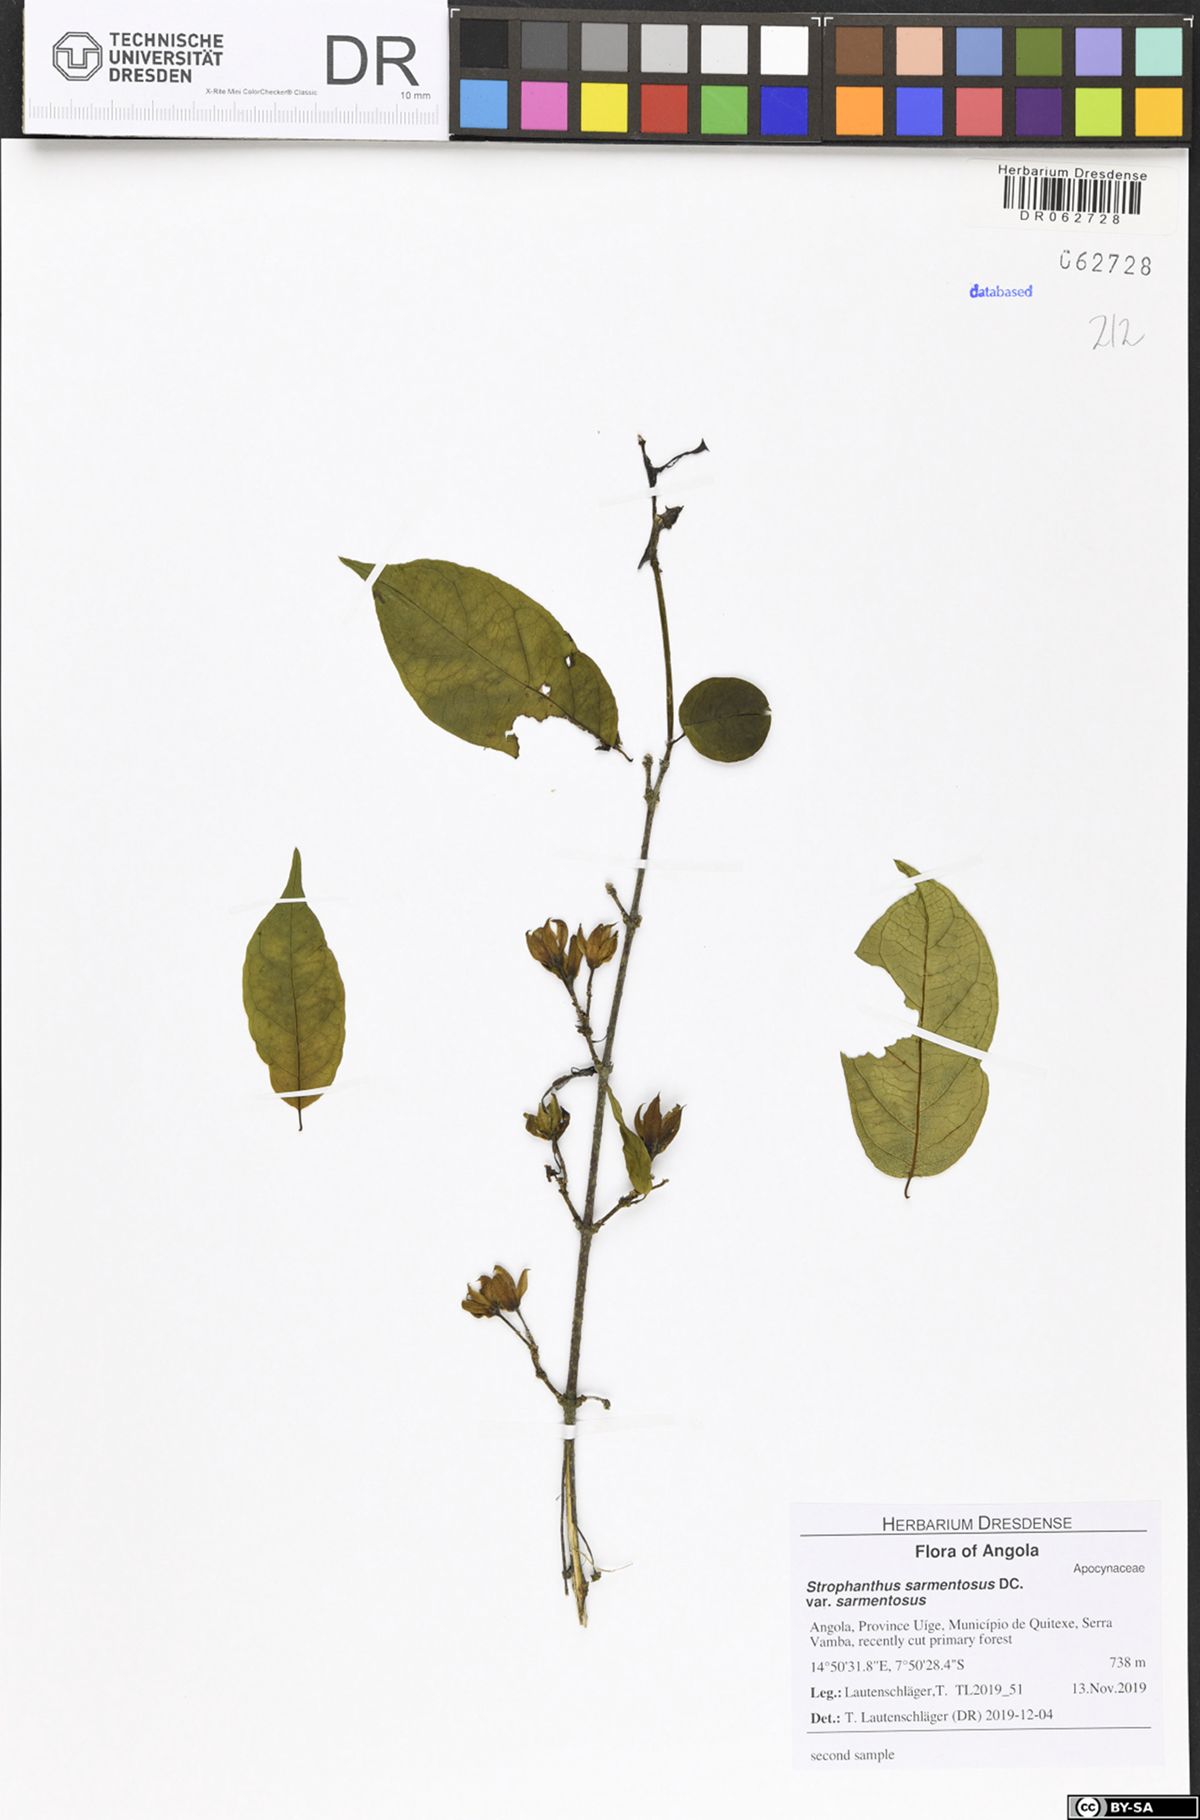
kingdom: Plantae
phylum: Tracheophyta
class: Magnoliopsida
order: Gentianales
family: Apocynaceae
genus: Strophanthus
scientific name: Strophanthus sarmentosus
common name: Poison arrowvine
